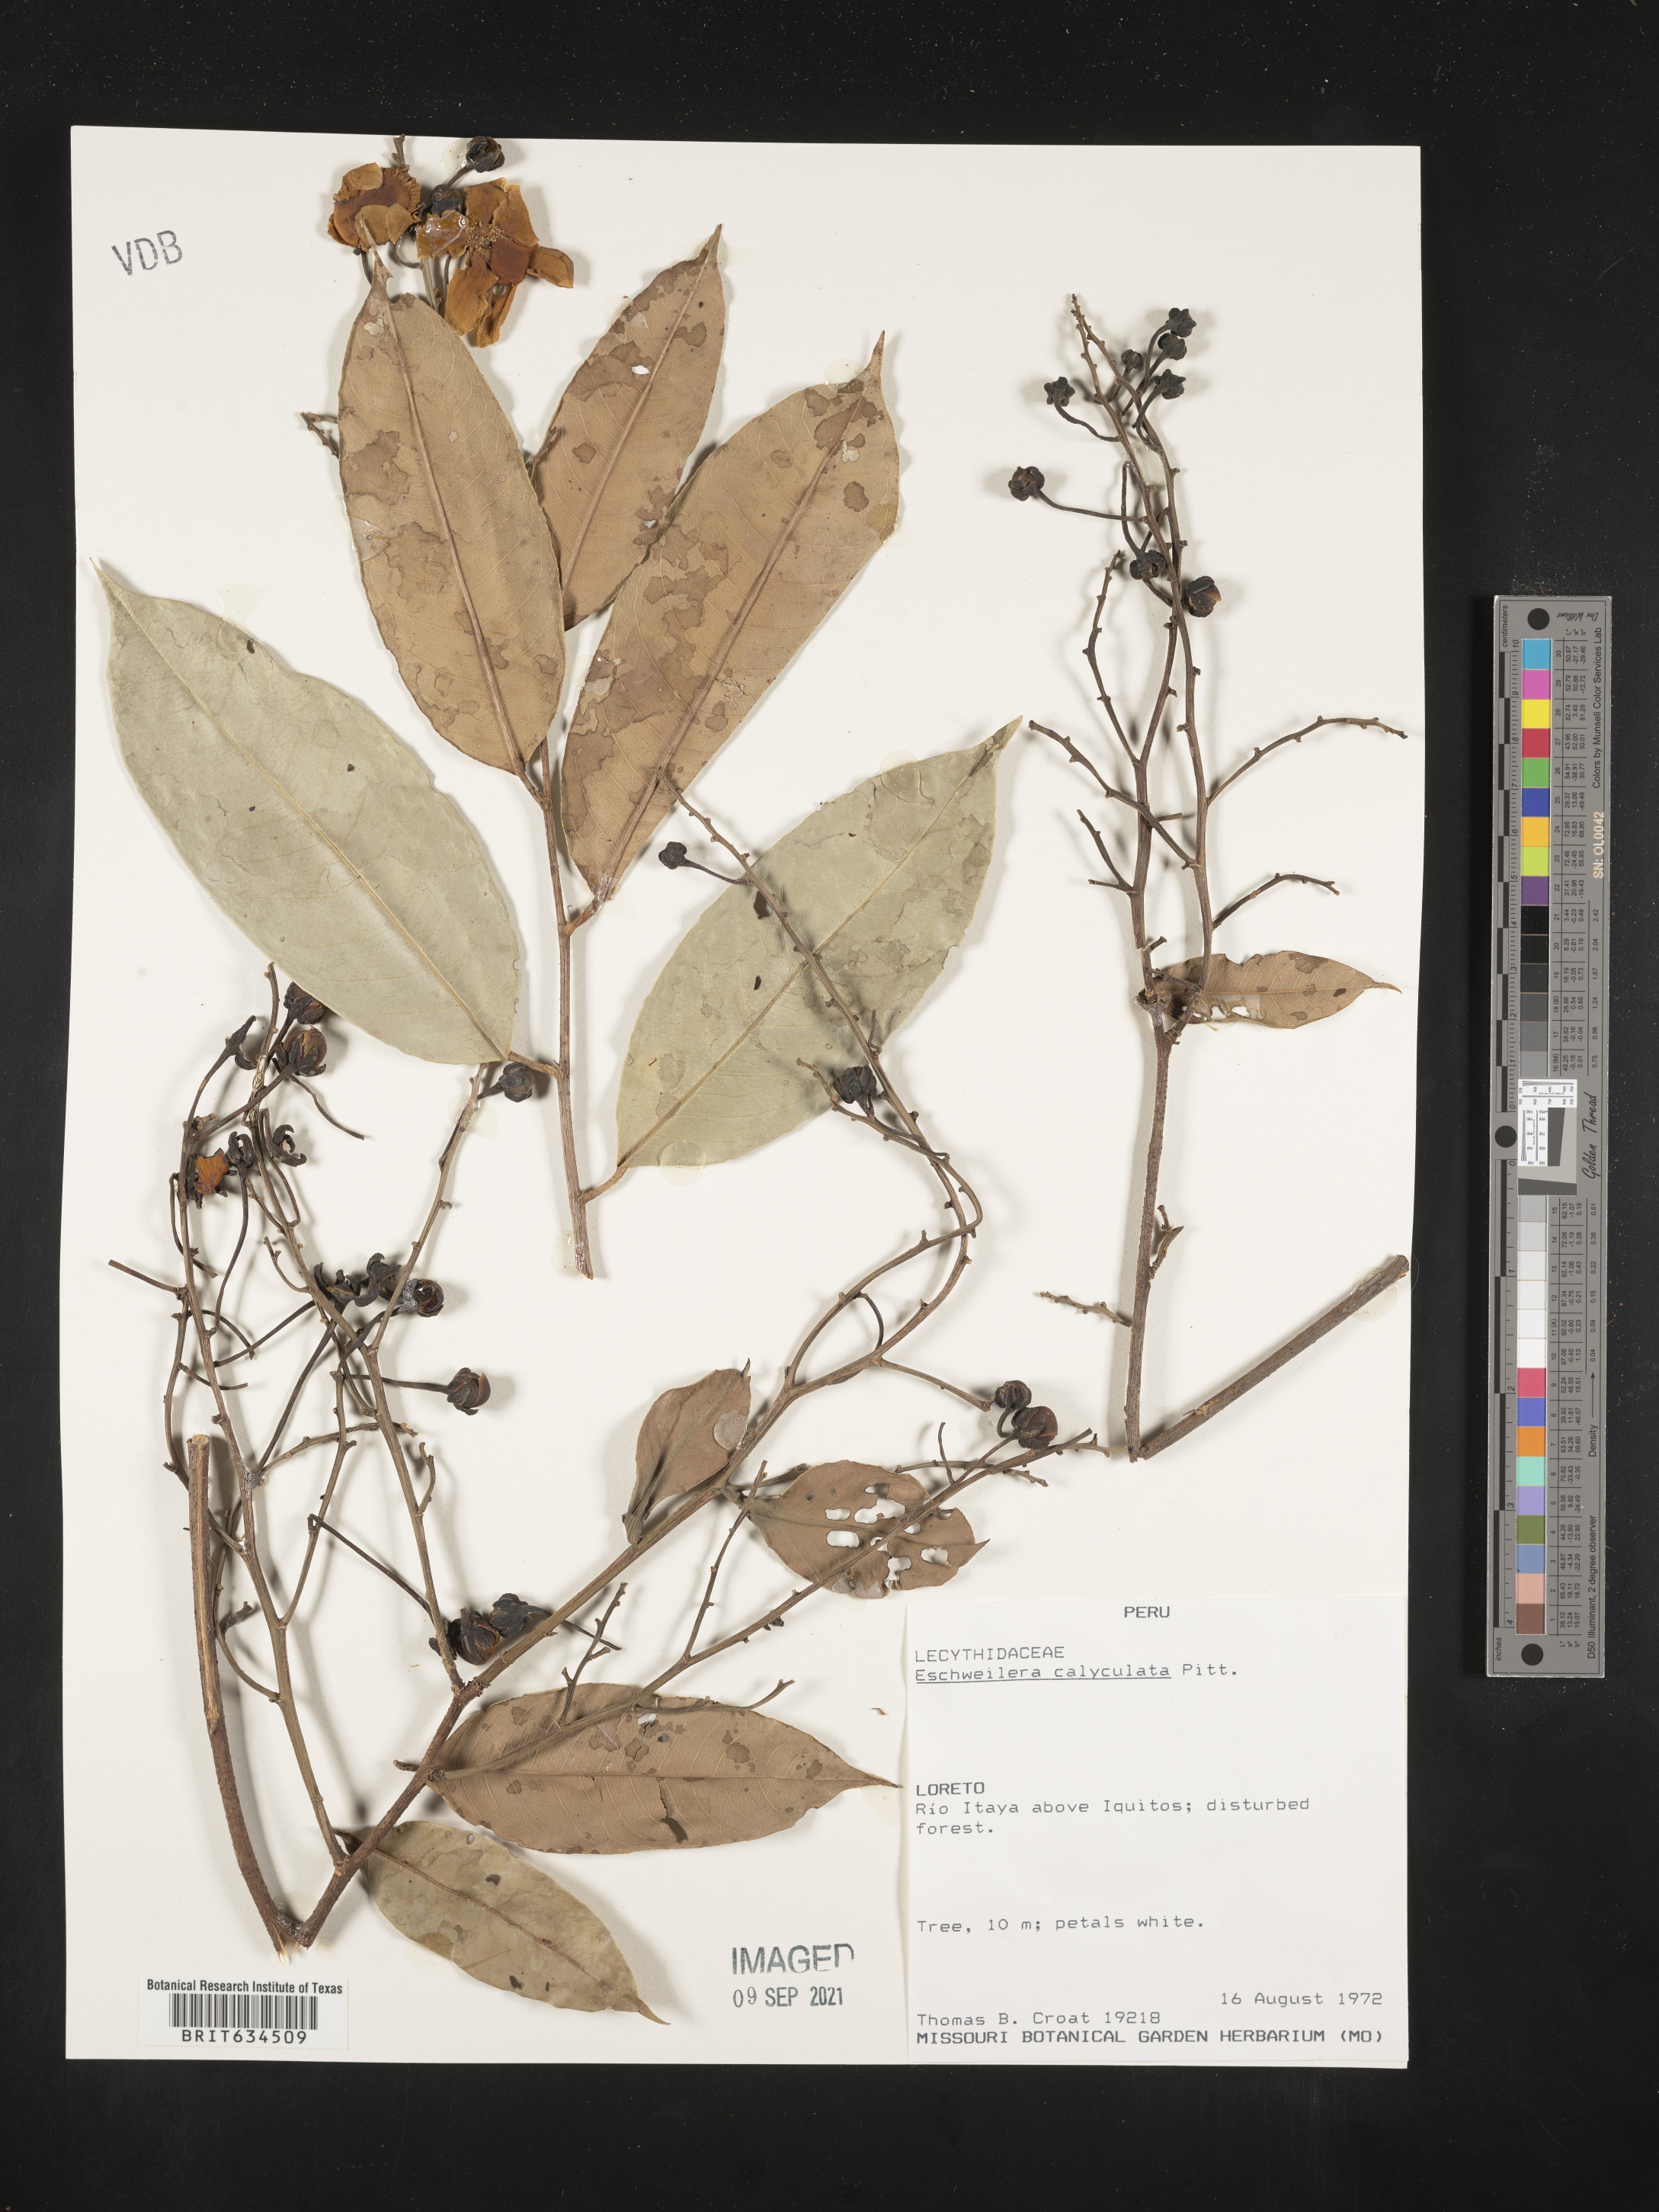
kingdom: Plantae
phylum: Tracheophyta
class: Magnoliopsida
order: Ericales
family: Lecythidaceae
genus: Eschweilera
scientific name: Eschweilera
